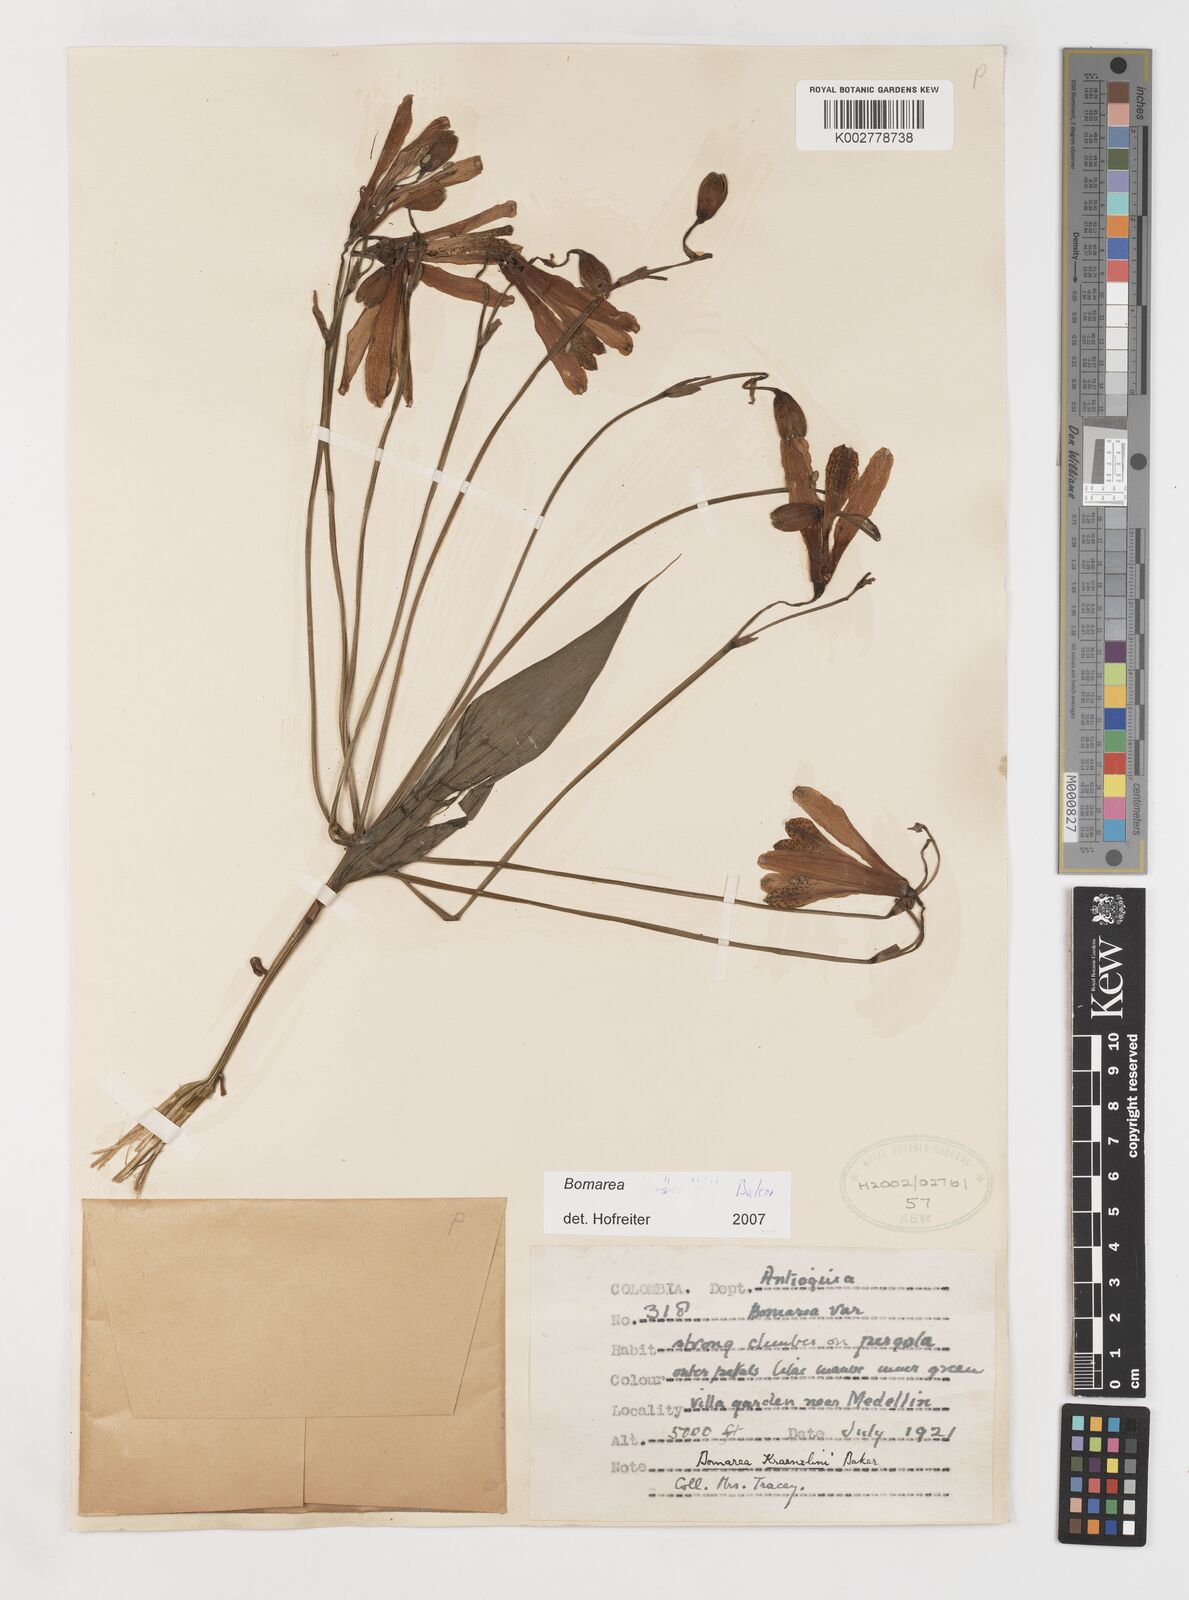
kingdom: Plantae
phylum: Tracheophyta
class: Liliopsida
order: Liliales
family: Alstroemeriaceae
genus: Bomarea
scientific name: Bomarea kraenzlinii
